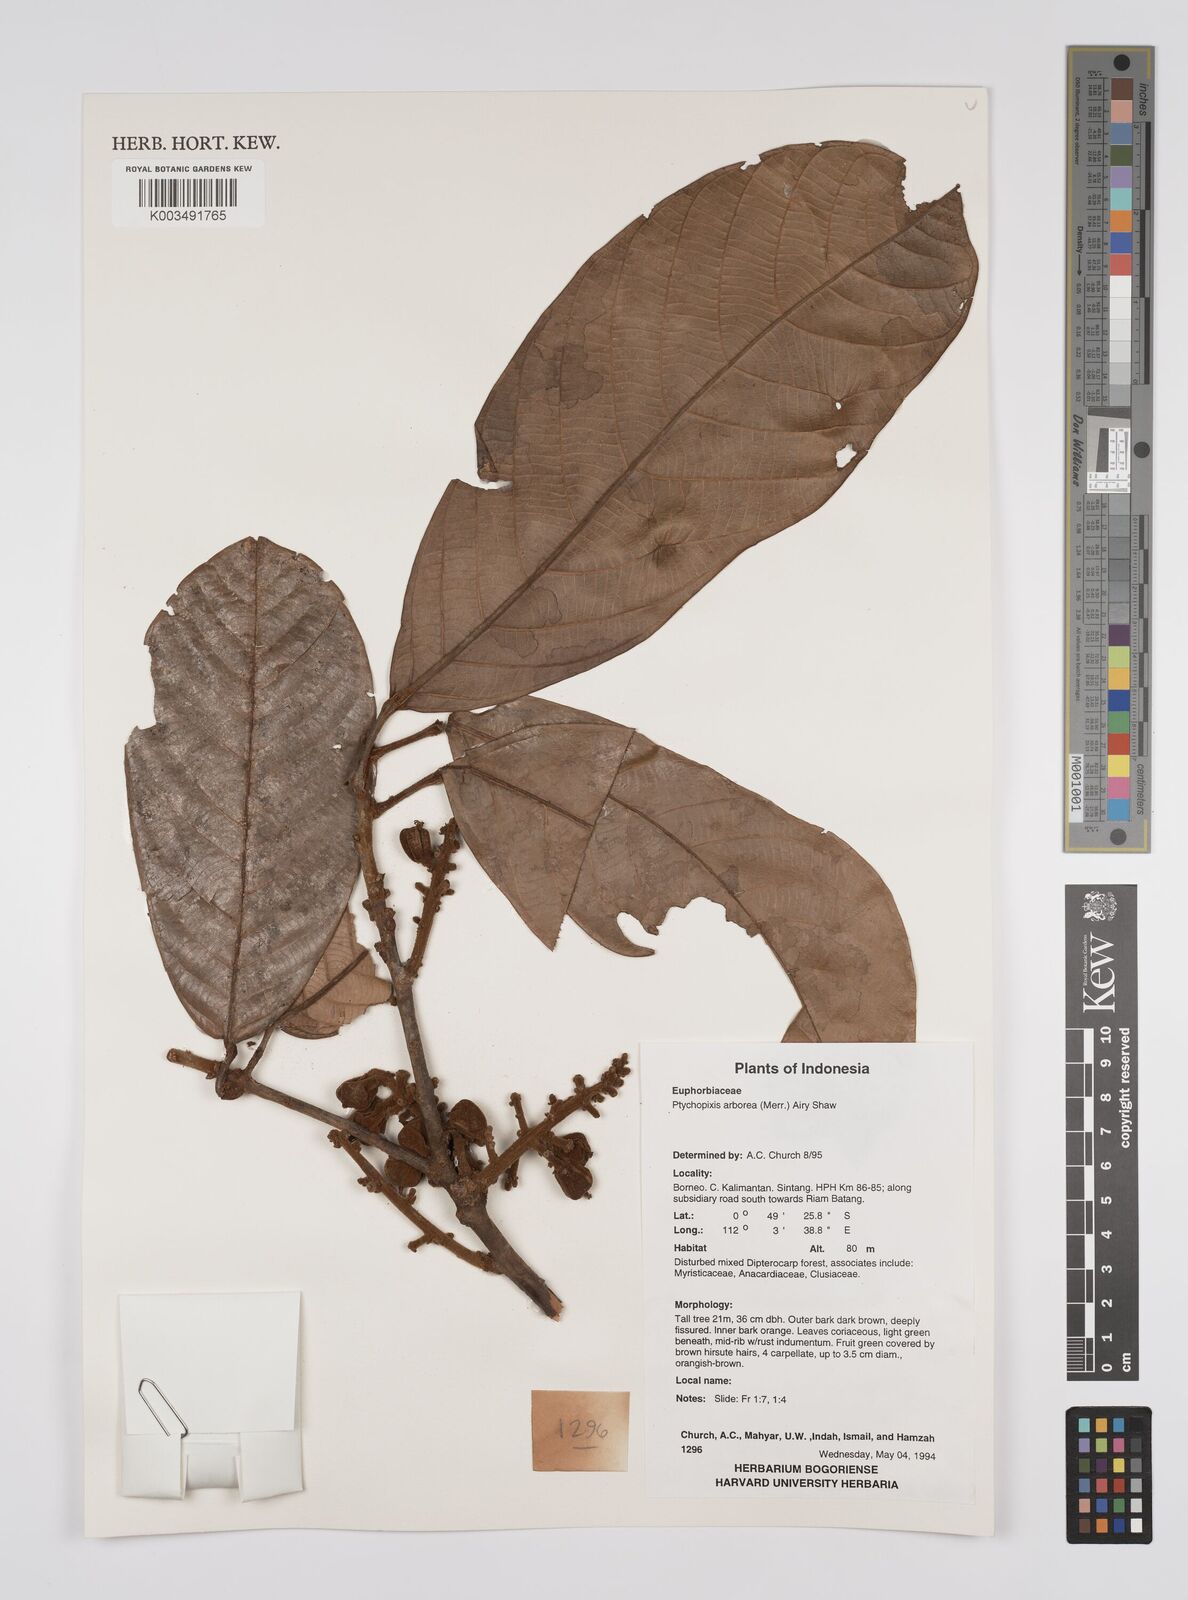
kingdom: Plantae
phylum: Tracheophyta
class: Magnoliopsida
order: Malpighiales
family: Euphorbiaceae
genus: Ptychopyxis
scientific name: Ptychopyxis arborea
